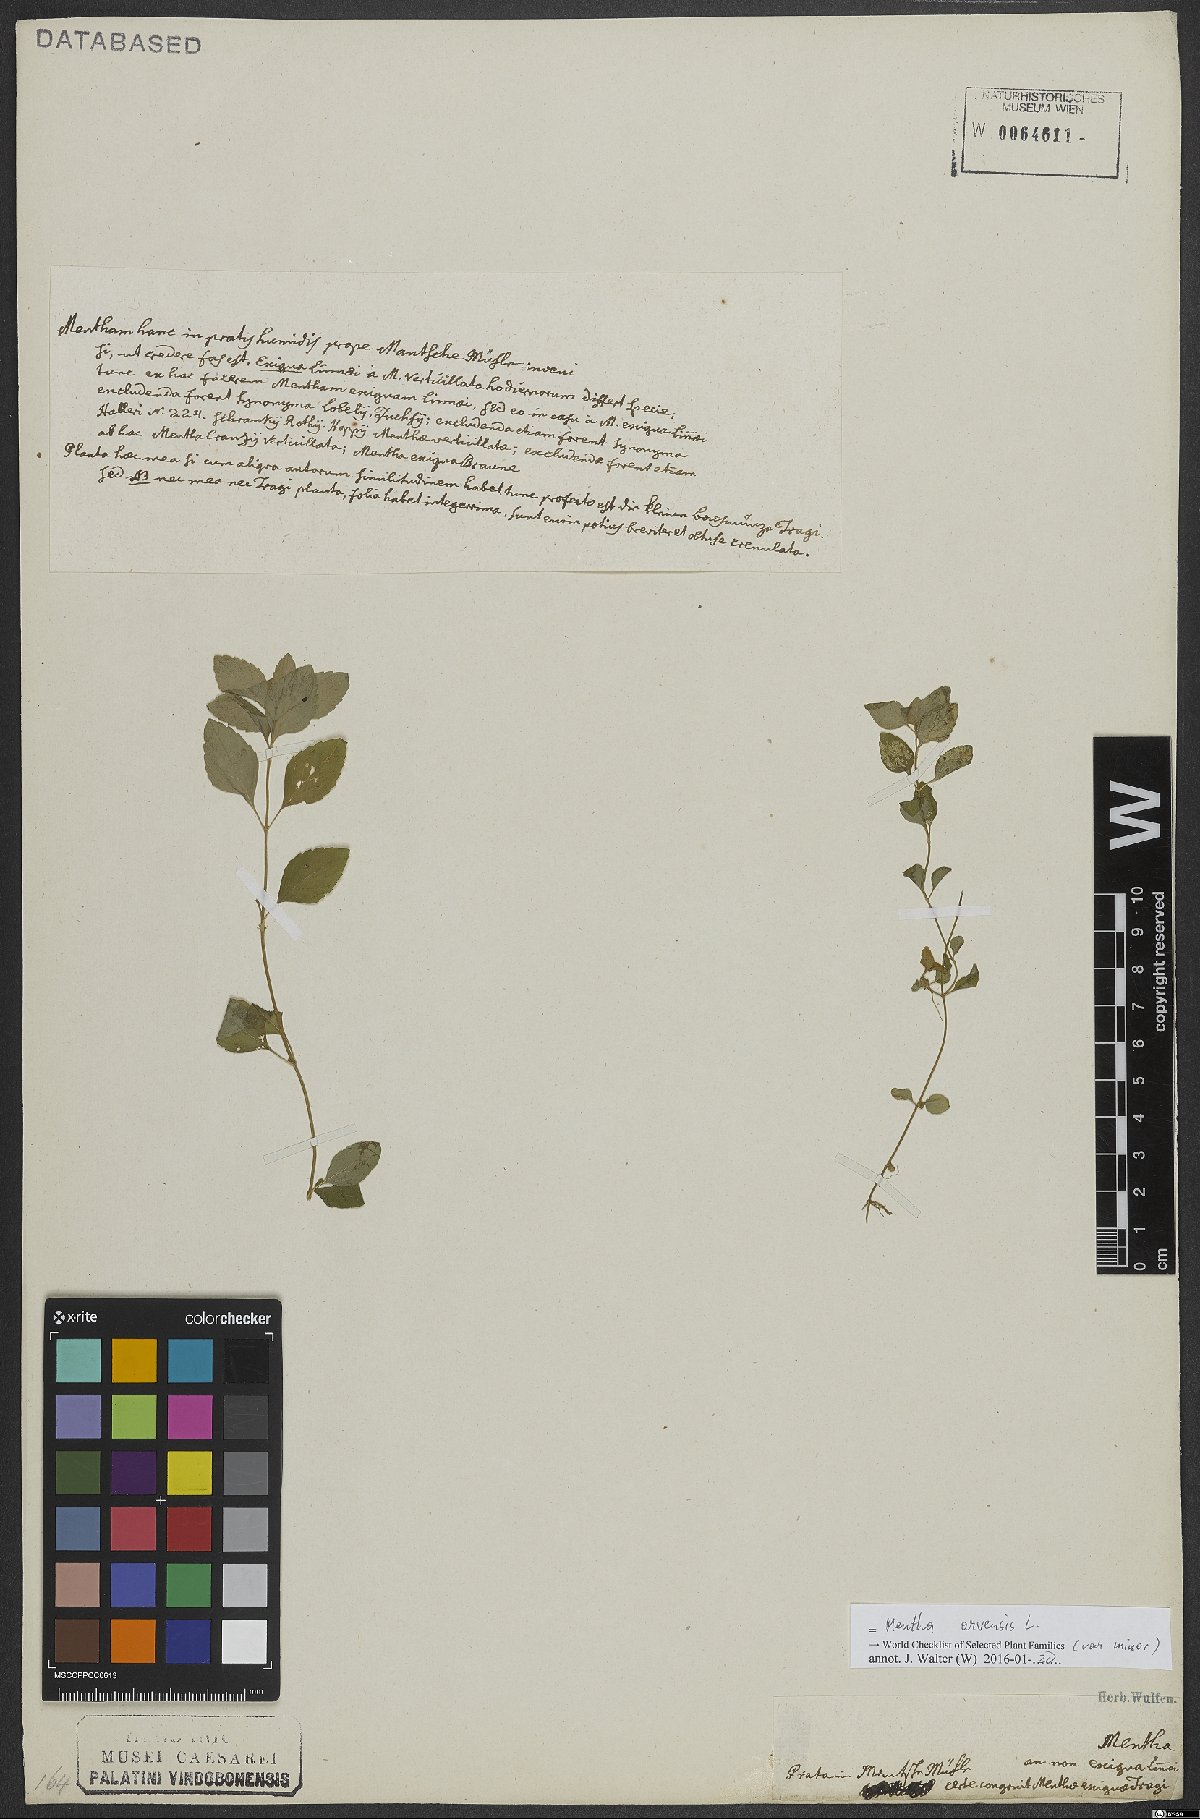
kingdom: Plantae
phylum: Tracheophyta
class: Magnoliopsida
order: Lamiales
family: Lamiaceae
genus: Mentha
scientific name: Mentha arvensis
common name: Corn mint
